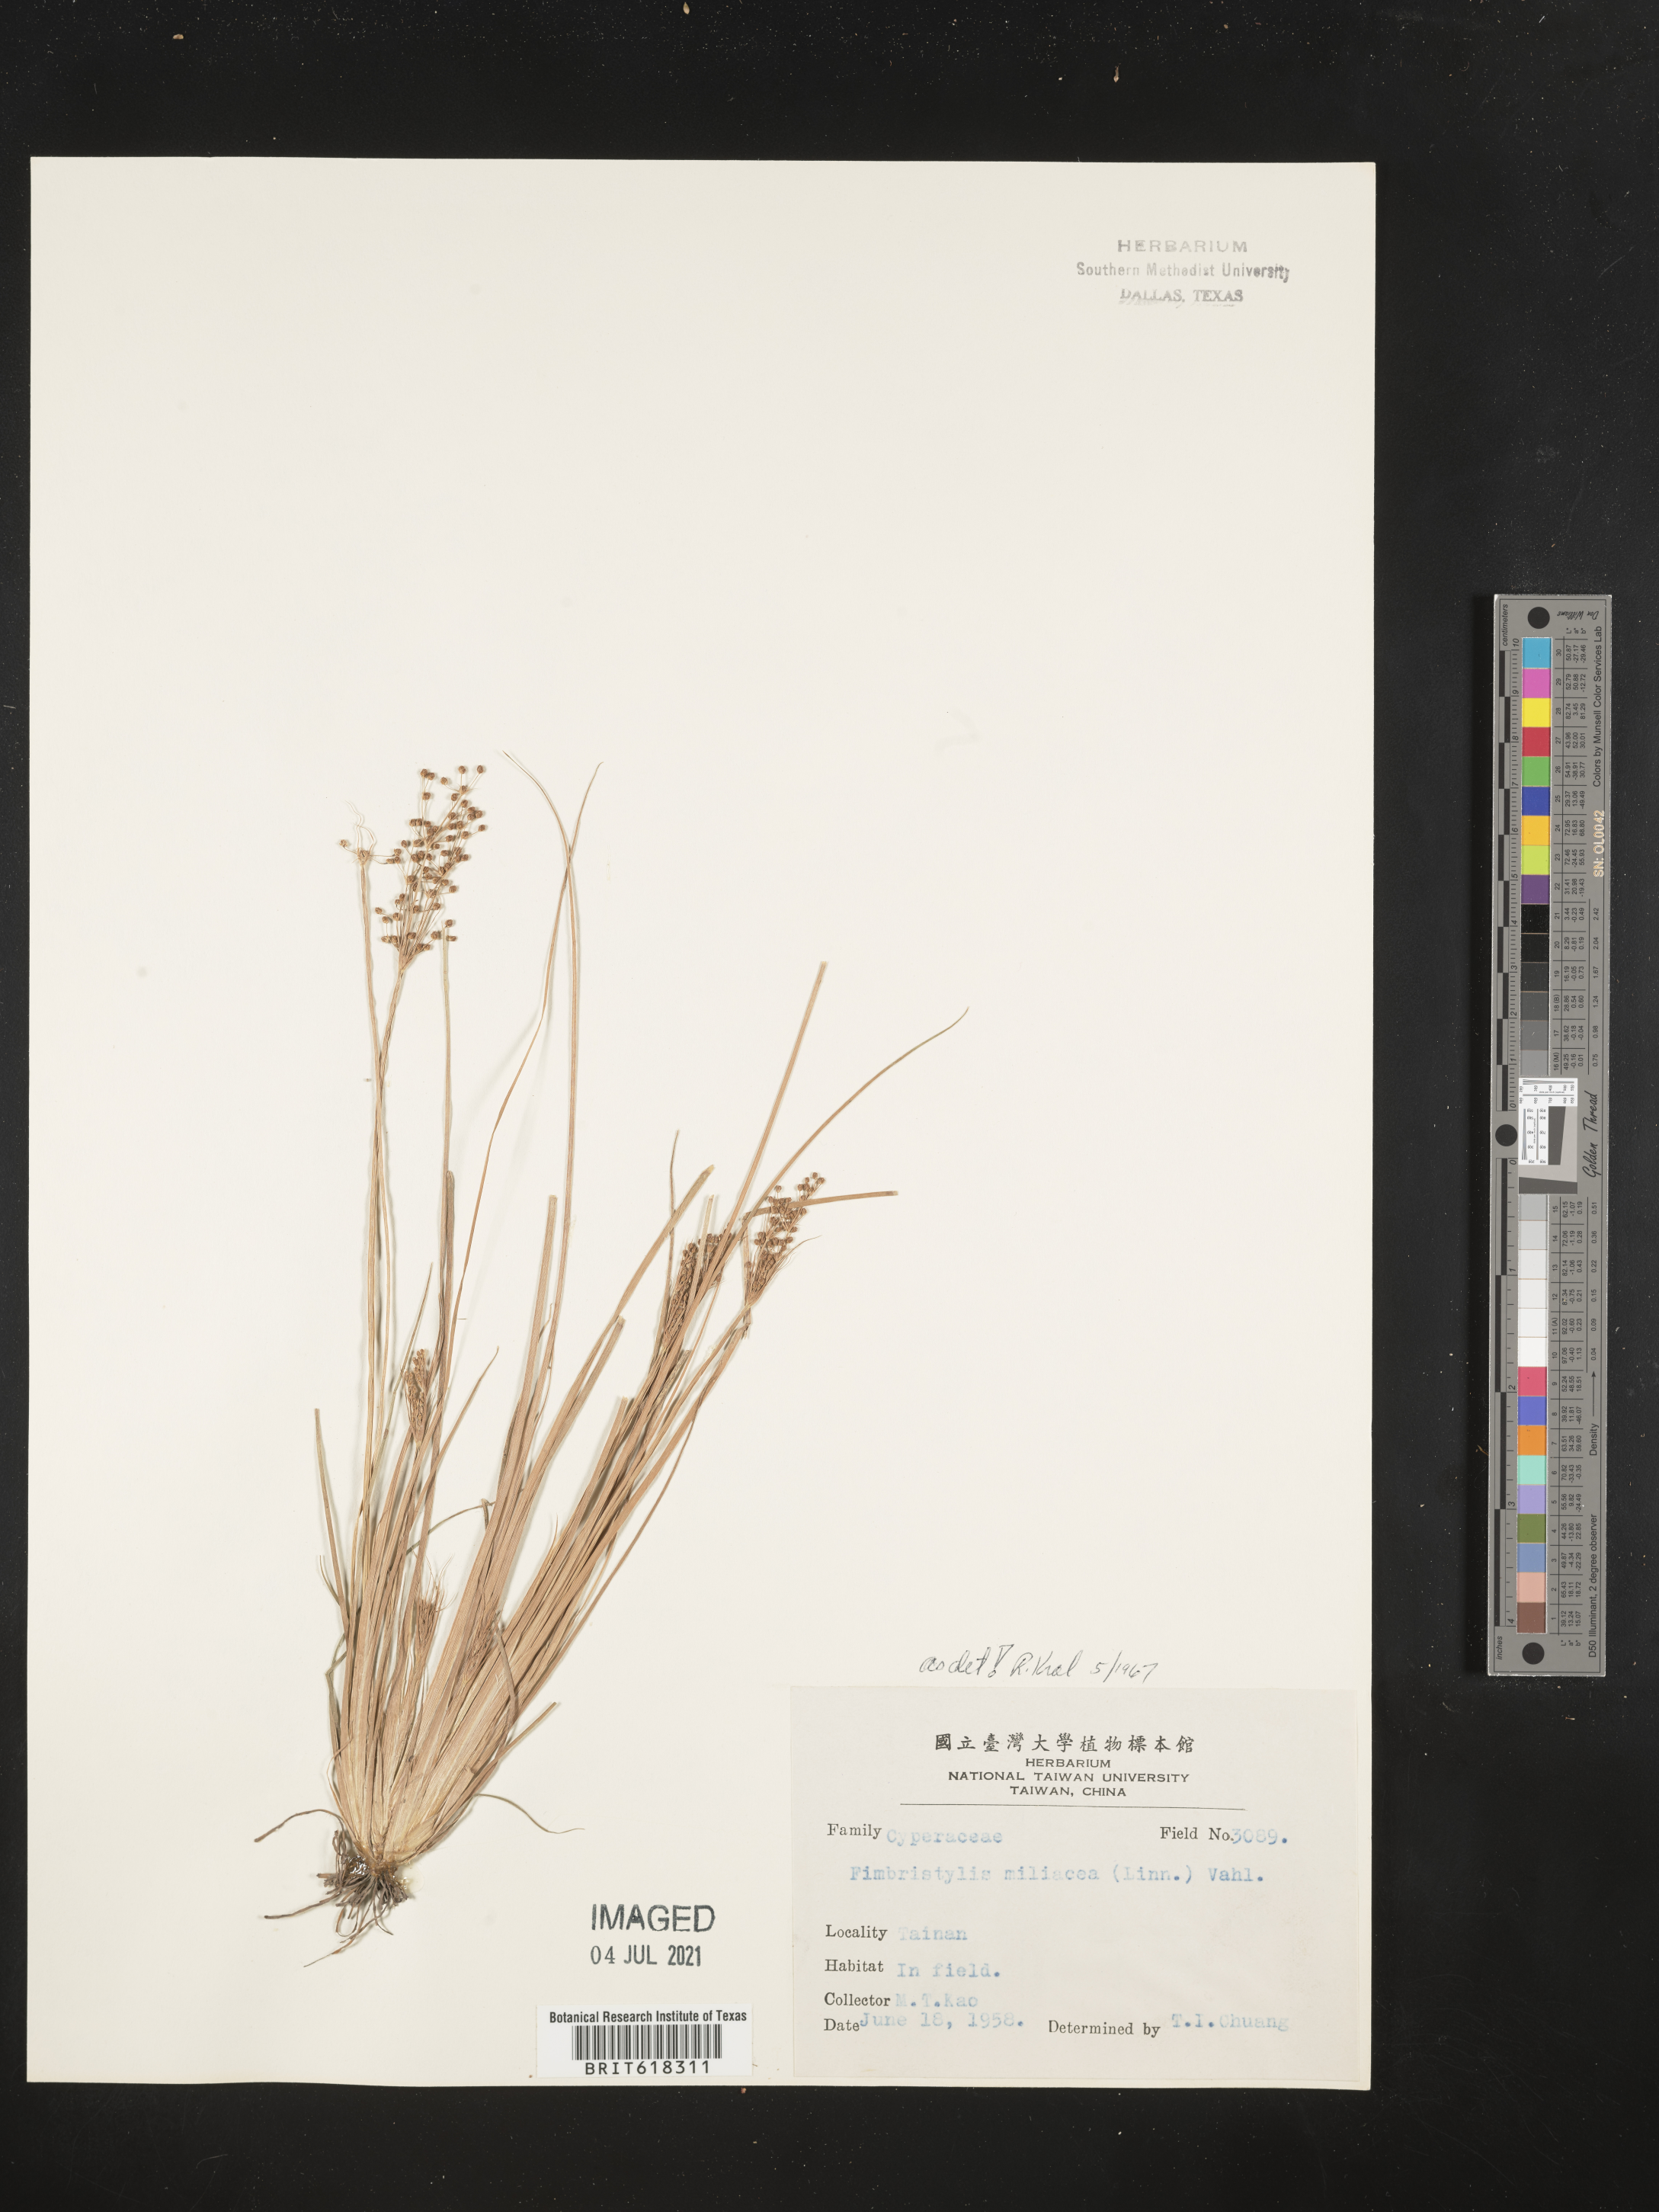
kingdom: Plantae
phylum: Tracheophyta
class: Liliopsida
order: Poales
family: Cyperaceae
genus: Fimbristylis
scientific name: Fimbristylis quinquangularis
